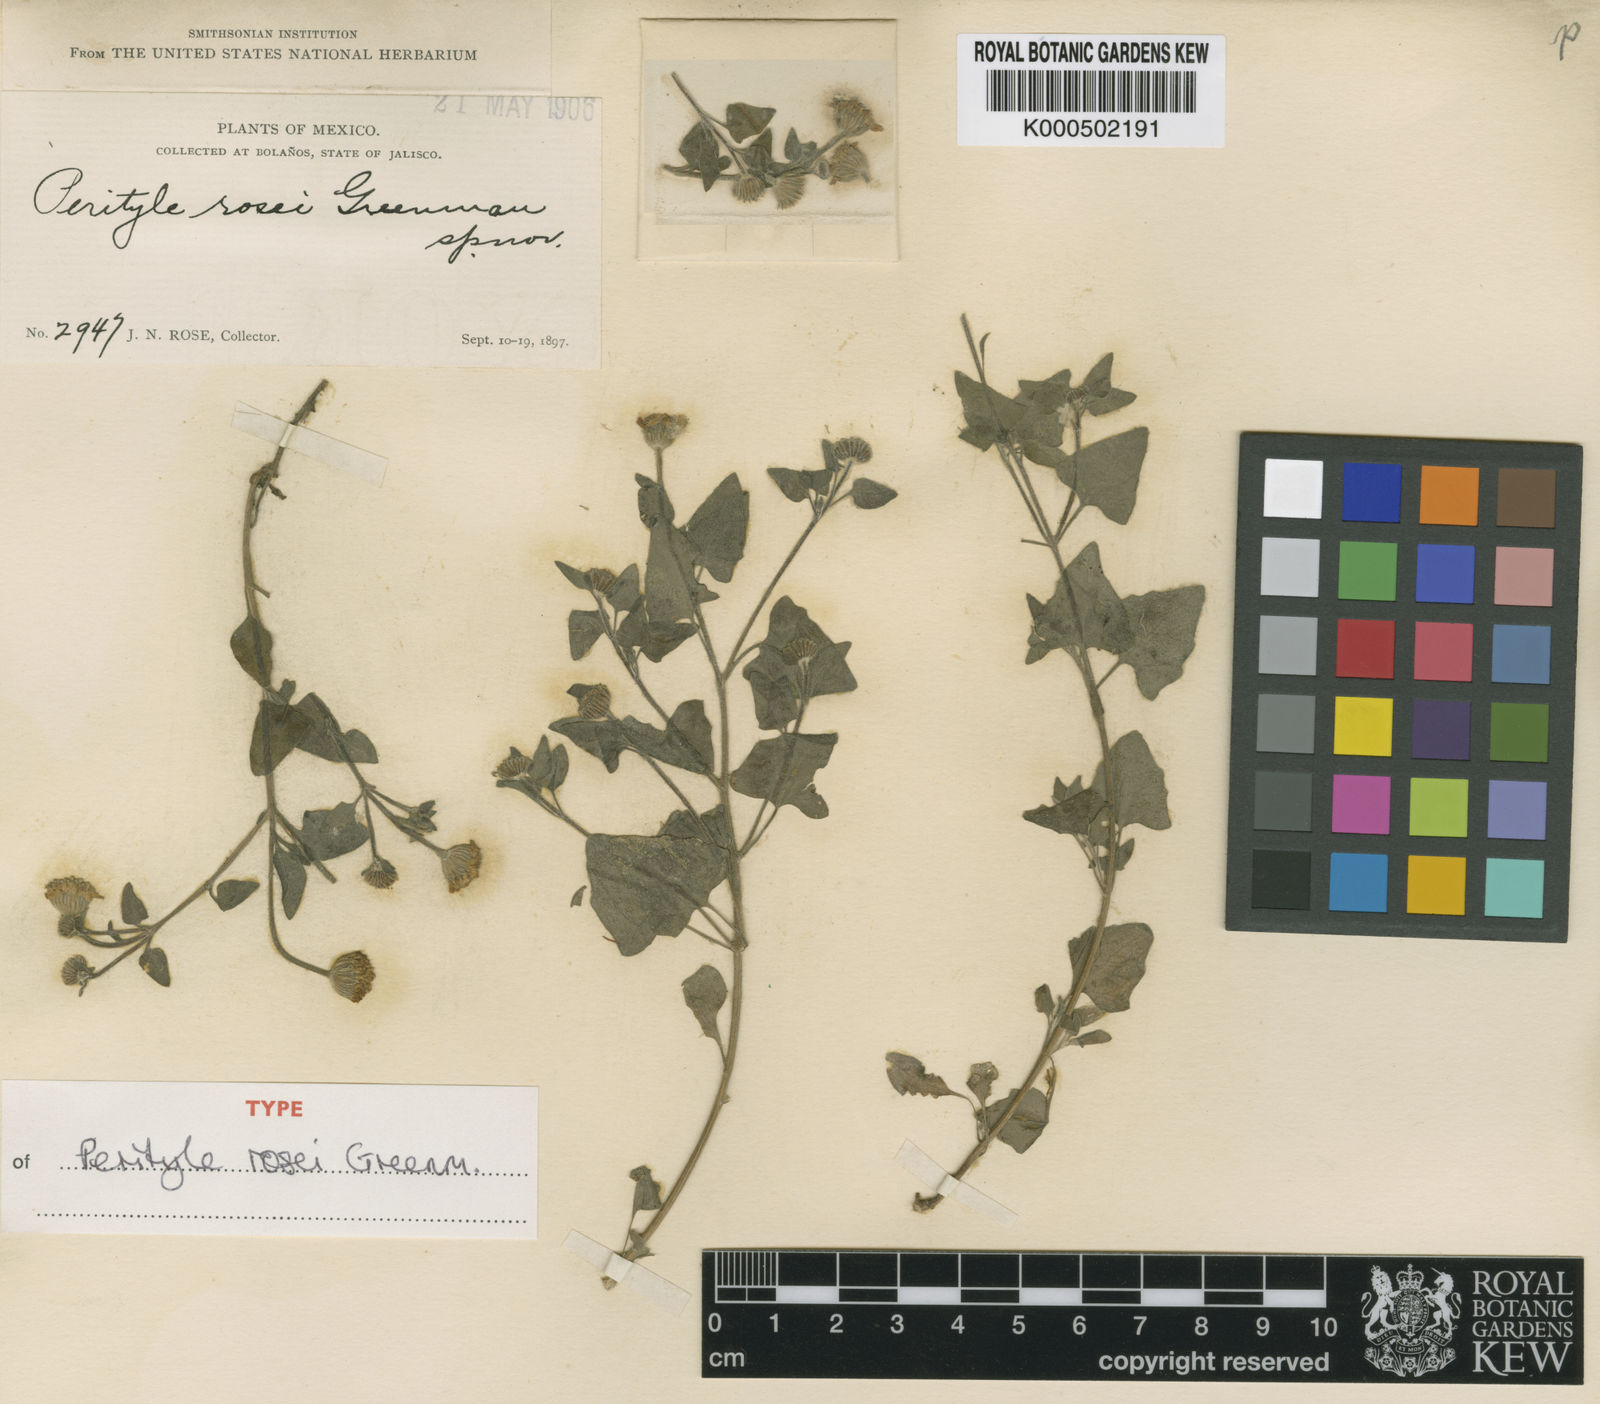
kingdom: Plantae
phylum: Tracheophyta
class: Magnoliopsida
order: Asterales
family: Asteraceae
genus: Perityle
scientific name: Perityle rosei
